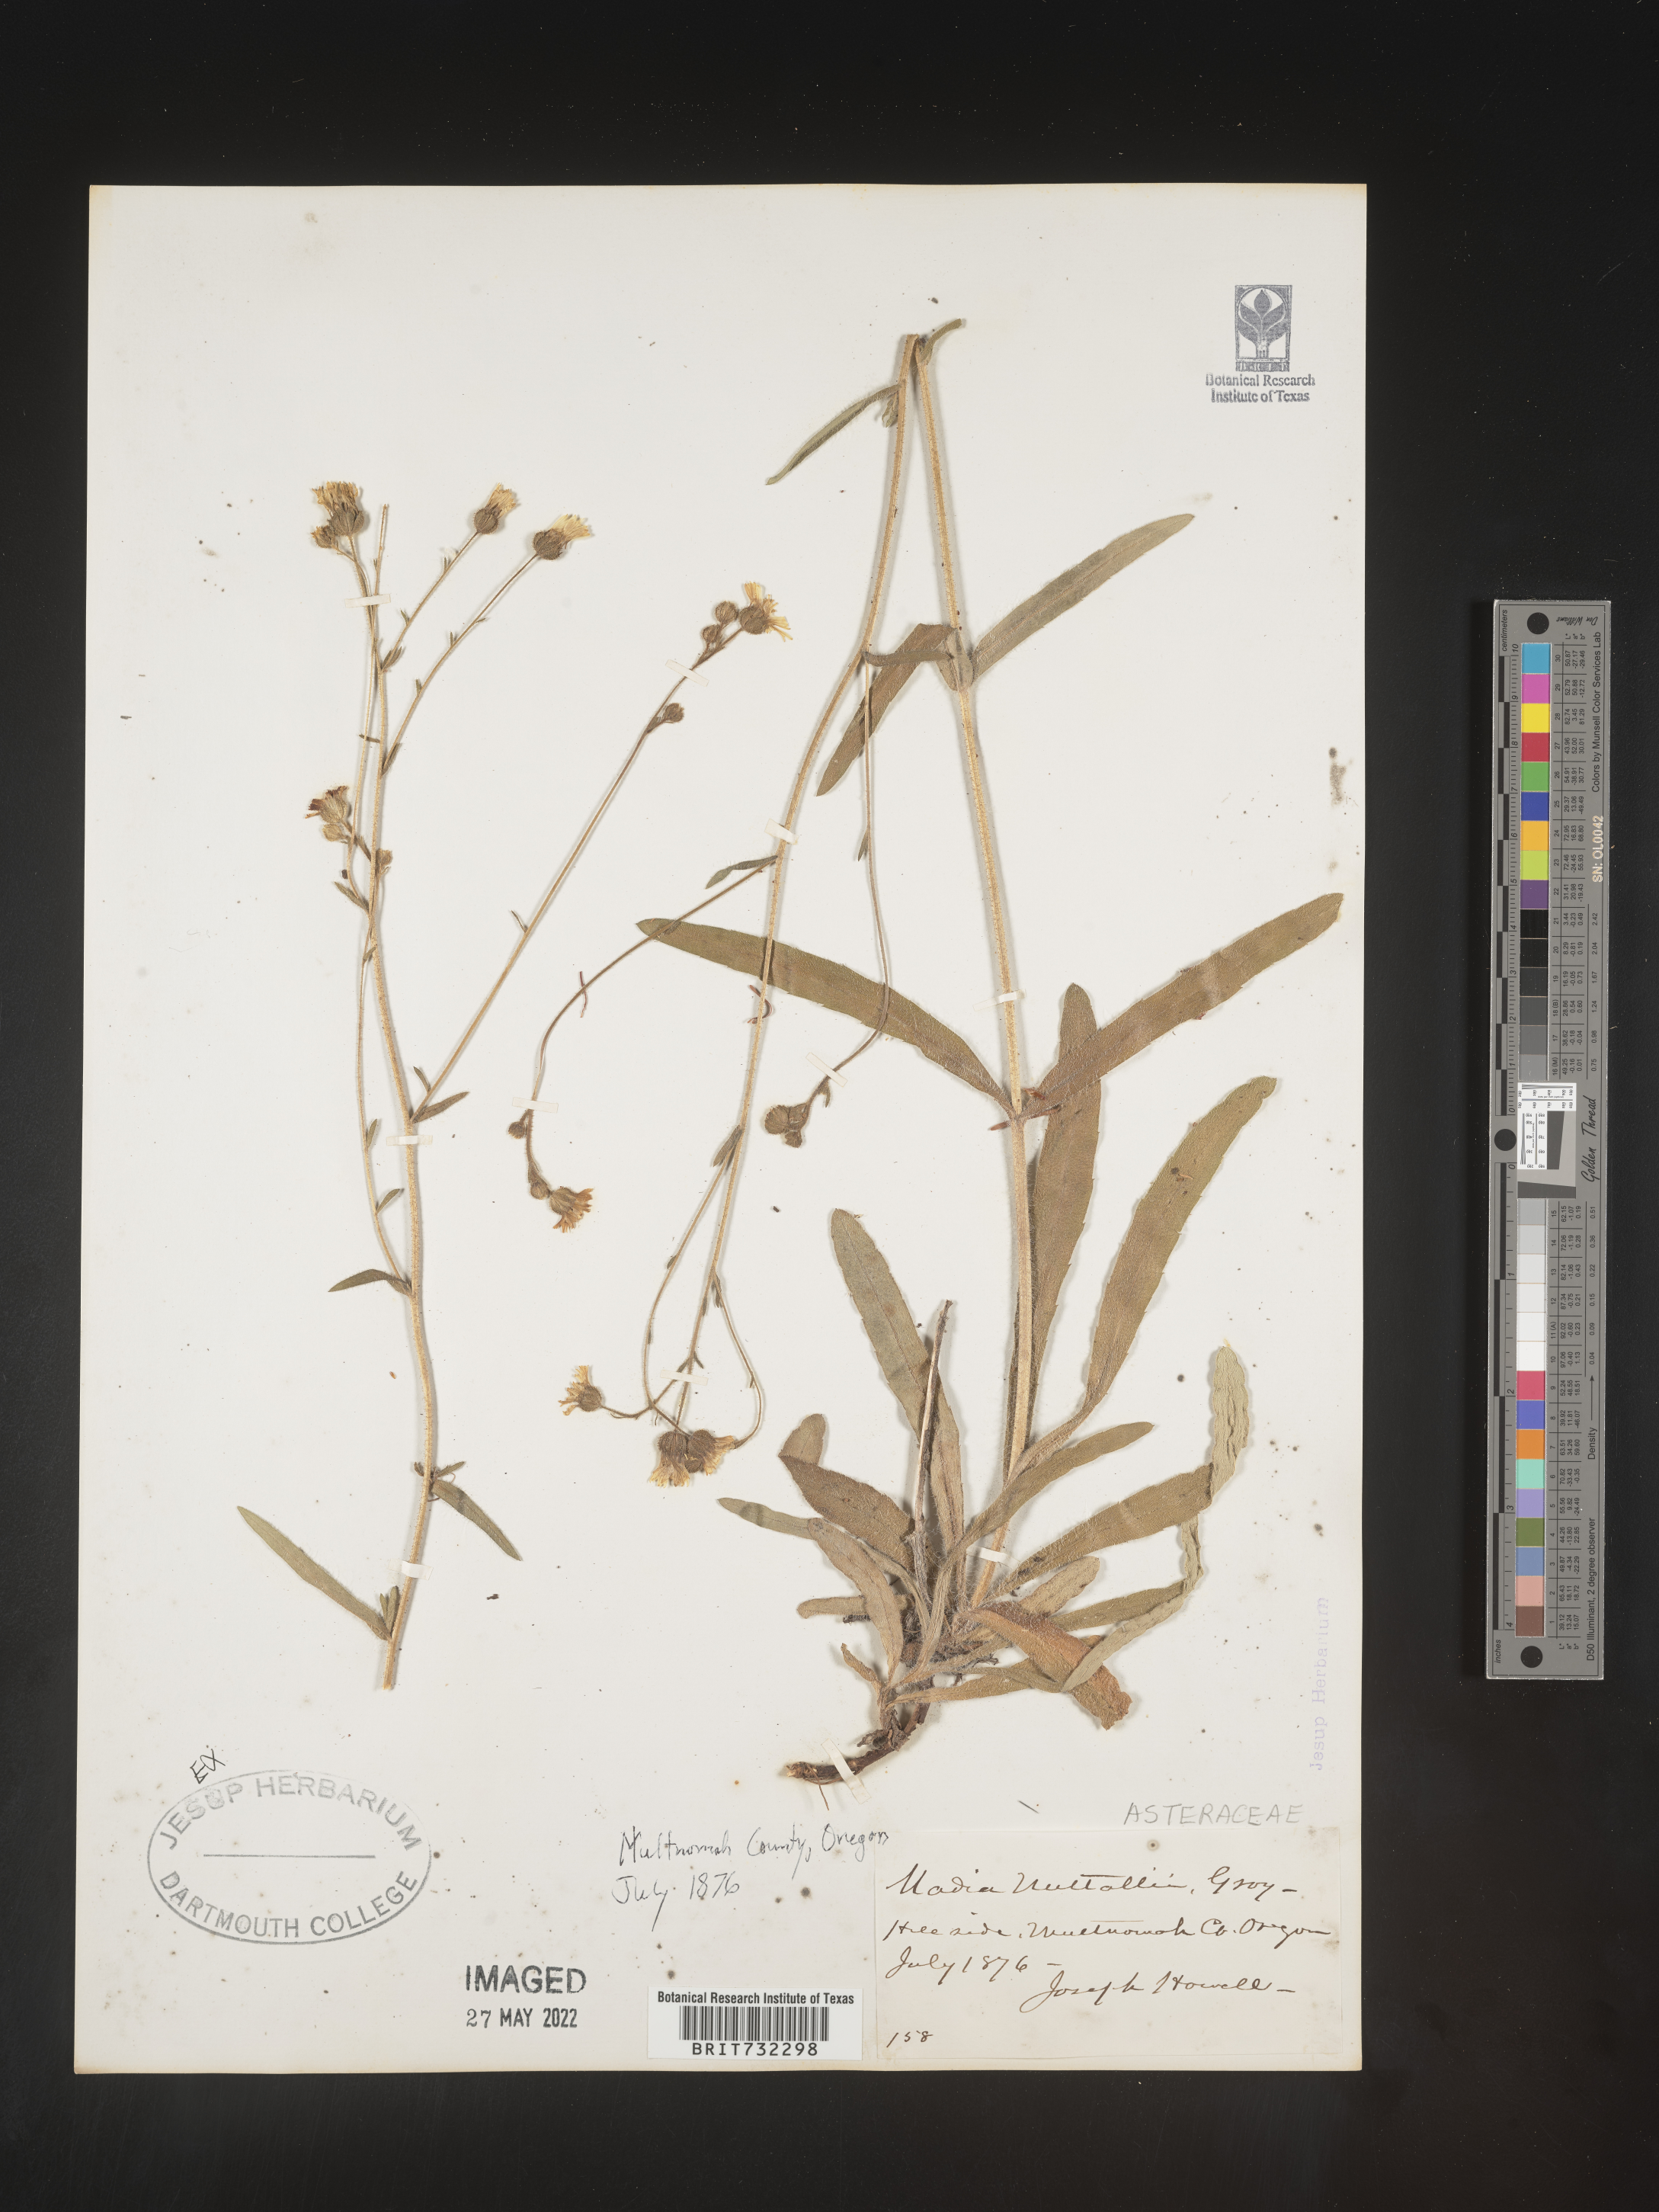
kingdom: Plantae
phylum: Tracheophyta
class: Magnoliopsida
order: Asterales
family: Asteraceae
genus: Madia
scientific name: Madia
